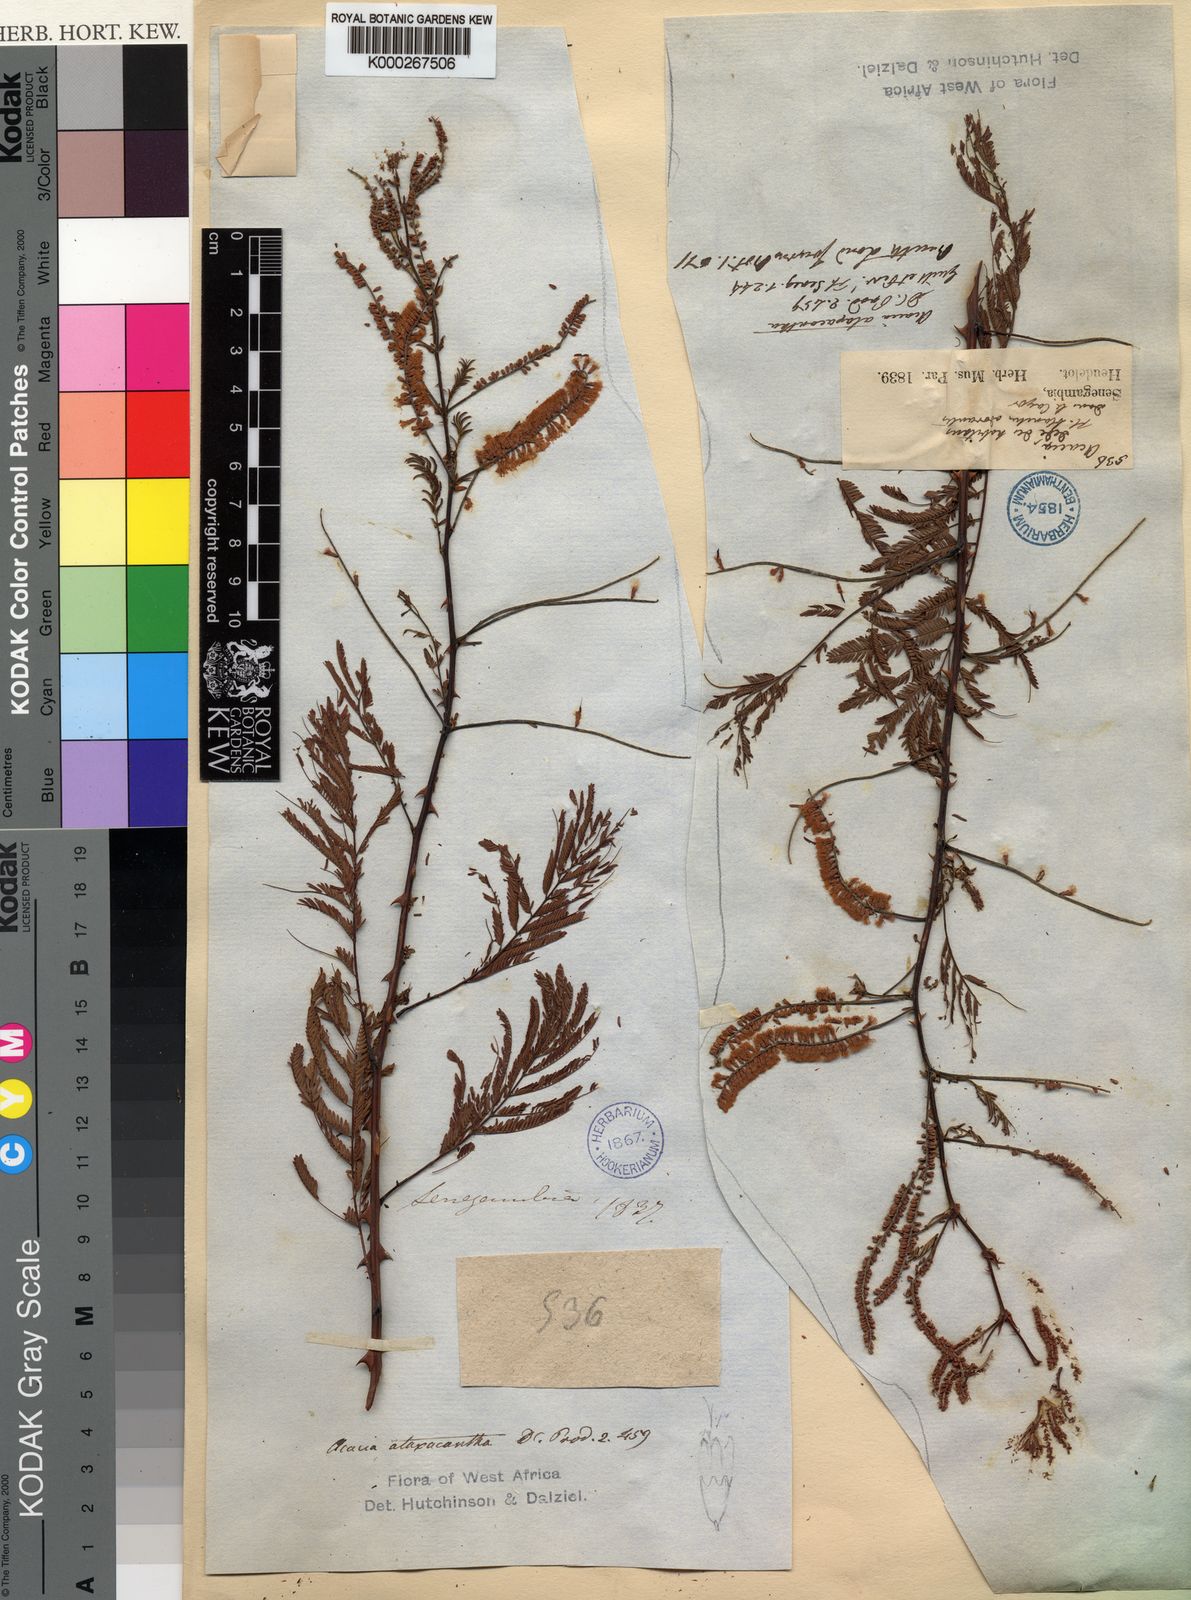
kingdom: Plantae
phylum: Tracheophyta
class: Magnoliopsida
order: Fabales
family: Fabaceae
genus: Senegalia
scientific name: Senegalia ataxacantha
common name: Flame acacia
